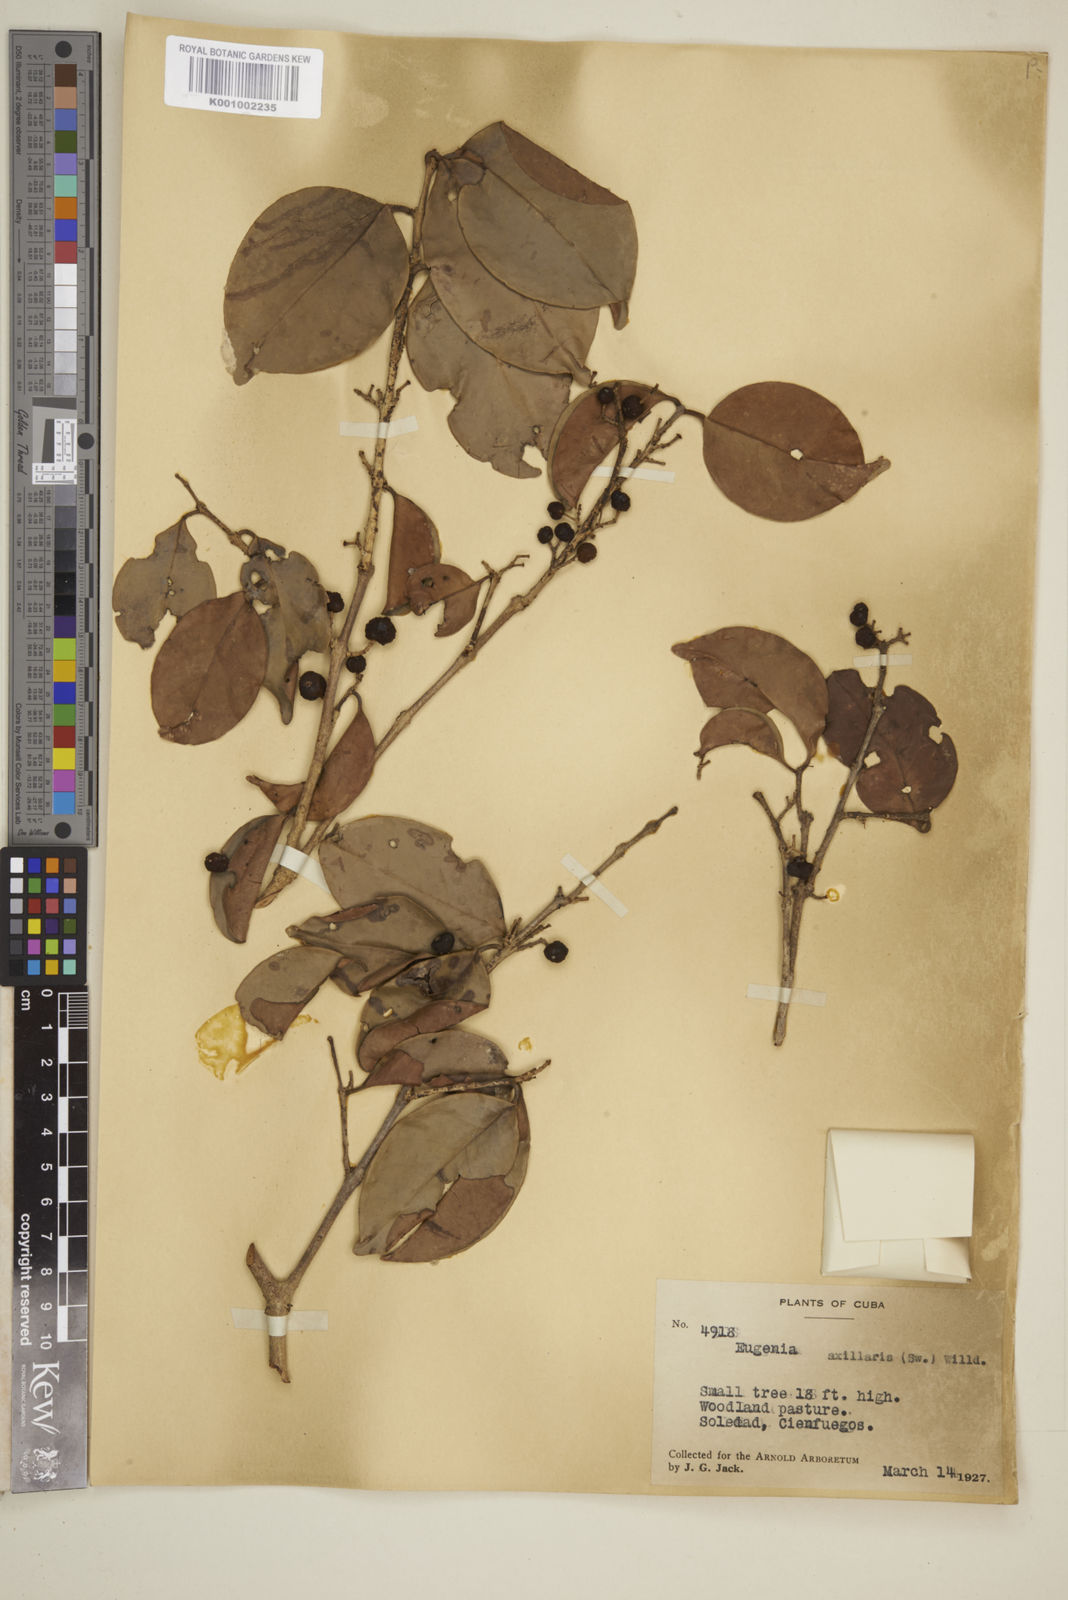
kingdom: Plantae
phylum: Tracheophyta
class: Magnoliopsida
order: Myrtales
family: Myrtaceae
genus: Eugenia
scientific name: Eugenia axillaris
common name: Choaky berry
